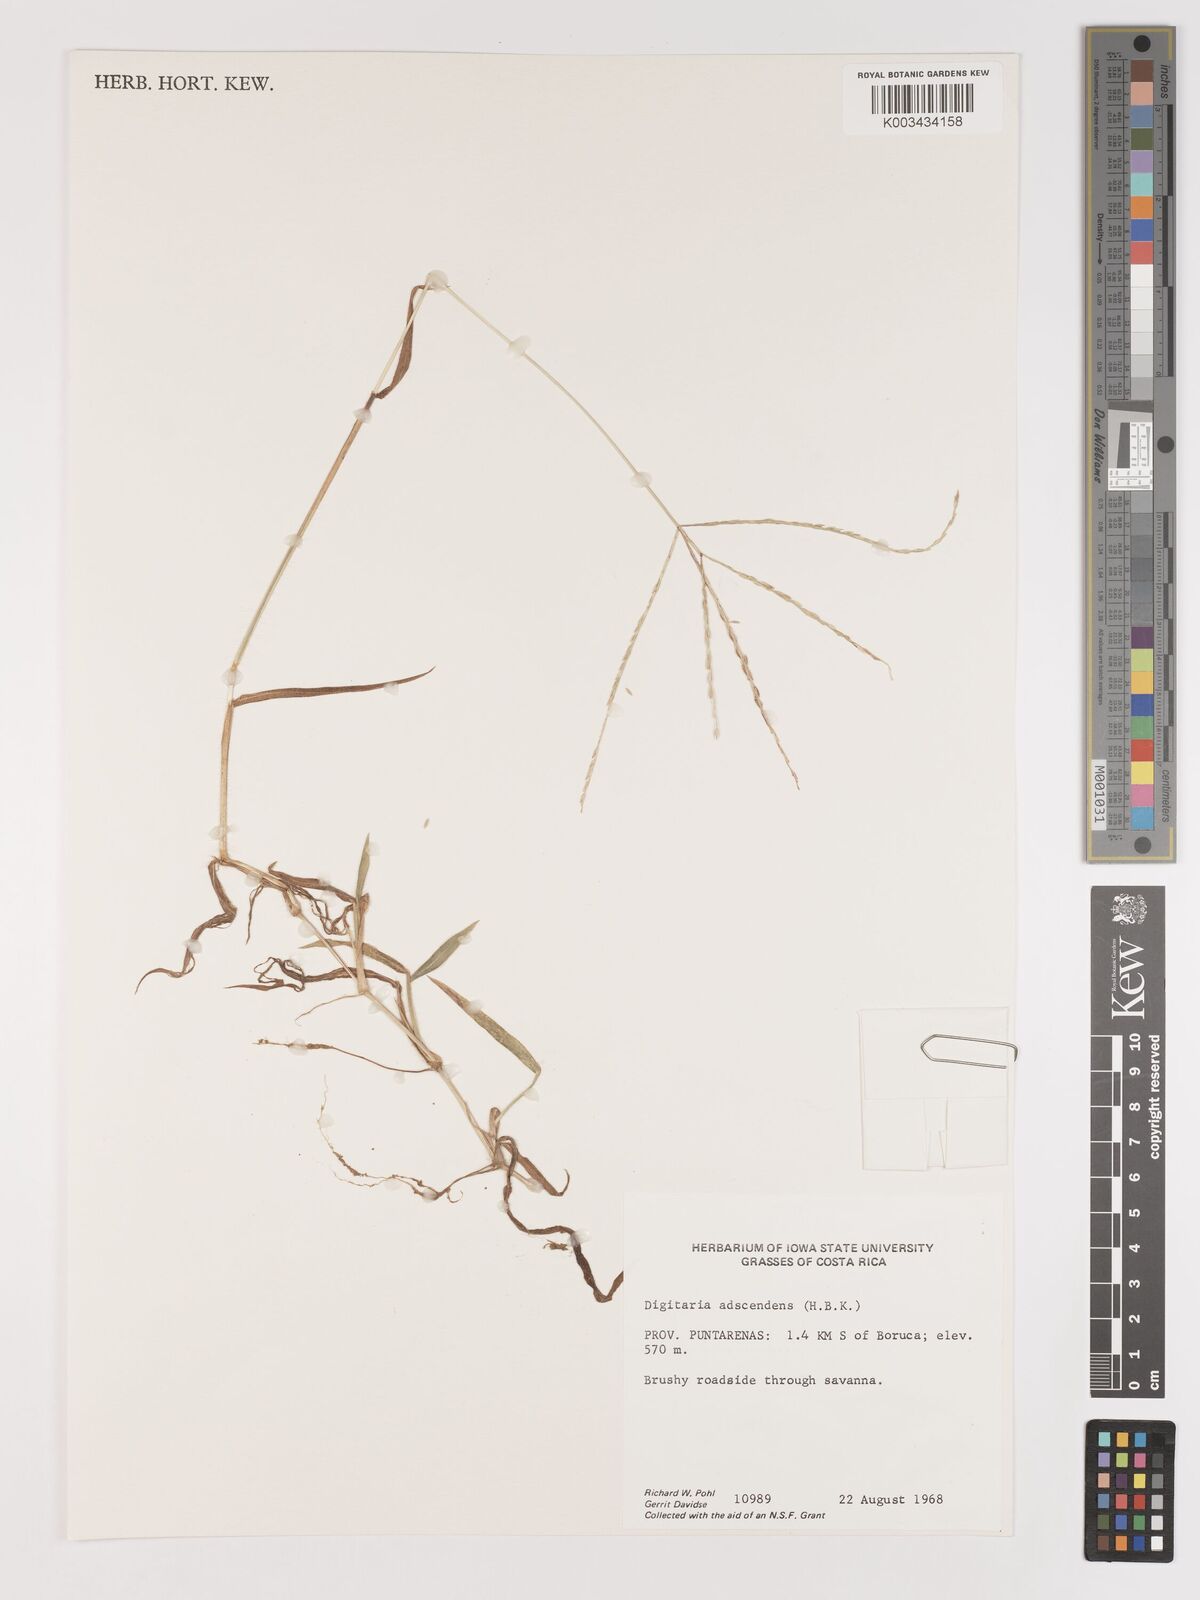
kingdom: Plantae
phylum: Tracheophyta
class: Liliopsida
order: Poales
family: Poaceae
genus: Digitaria
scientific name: Digitaria ciliaris
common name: Tropical finger-grass
